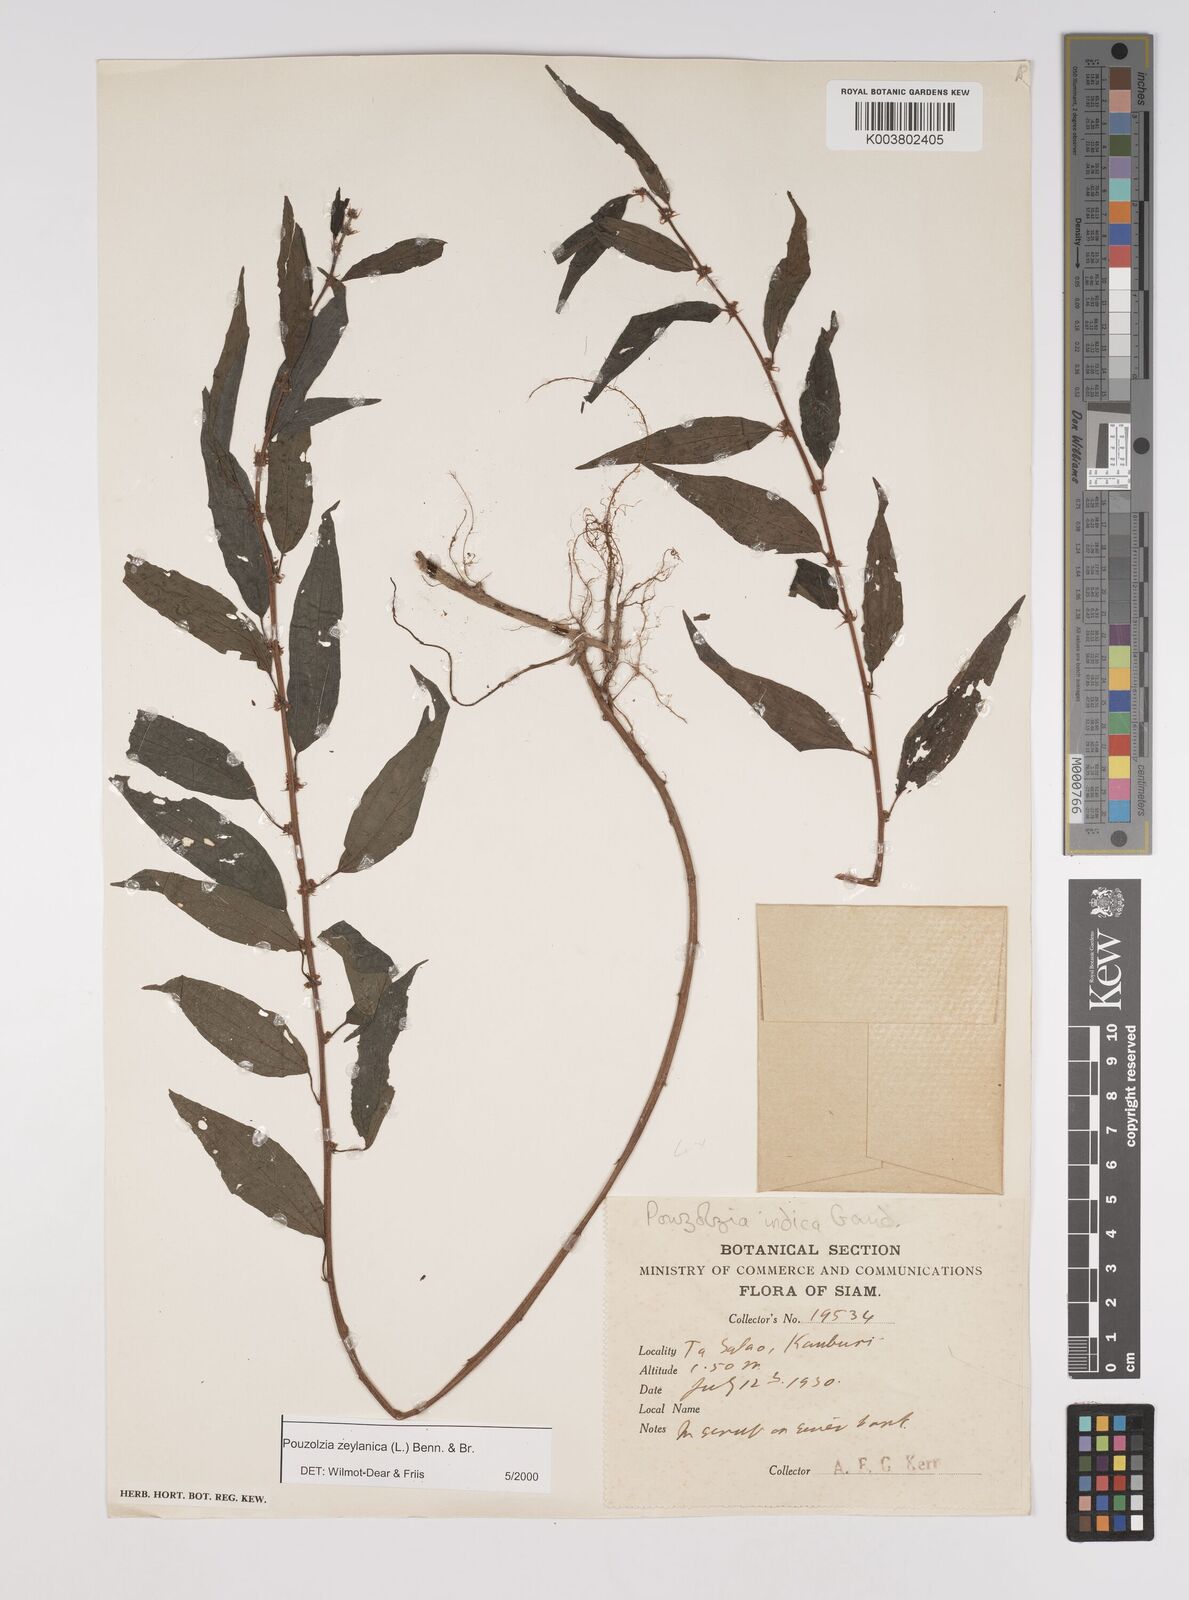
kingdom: Plantae
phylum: Tracheophyta
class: Magnoliopsida
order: Rosales
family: Urticaceae
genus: Pouzolzia
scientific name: Pouzolzia zeylanica
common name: Graceful pouzolzsbush
